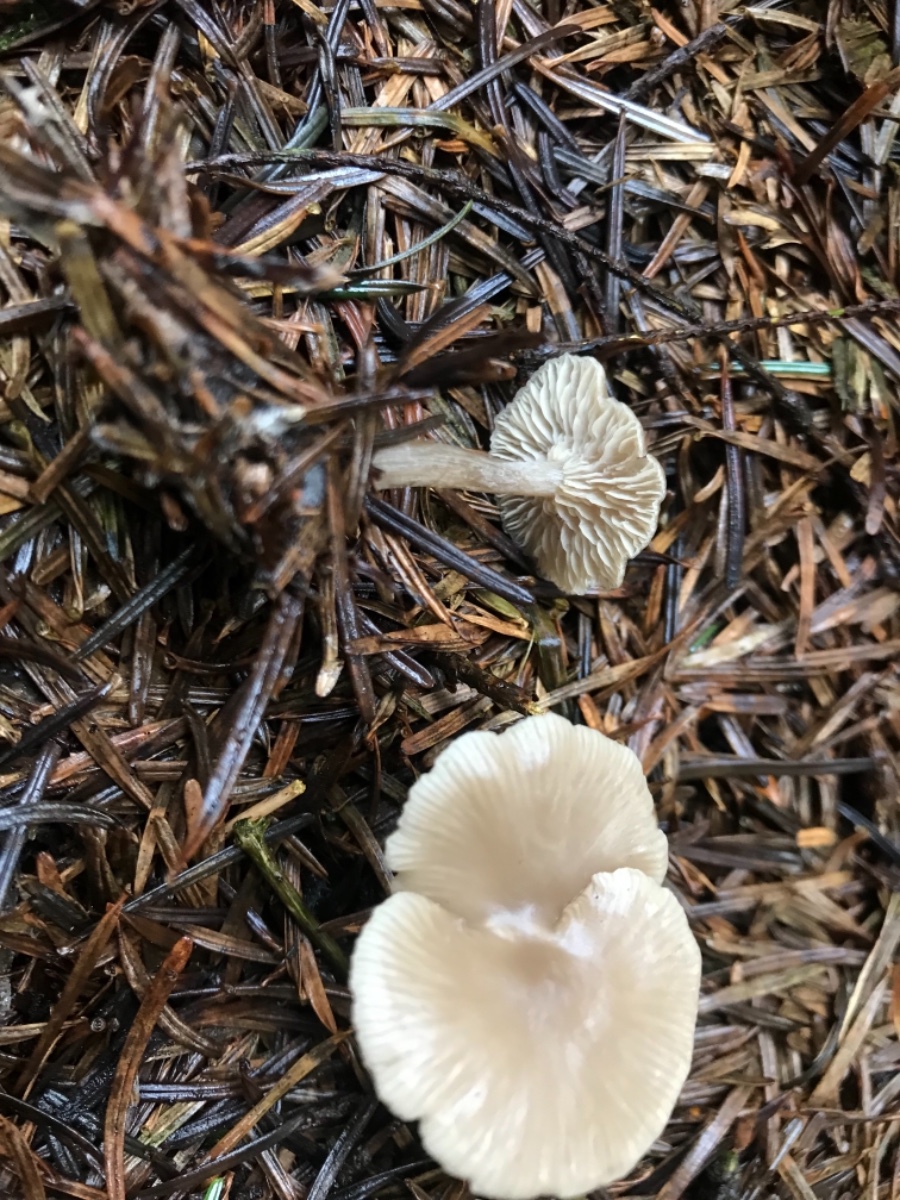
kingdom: Fungi
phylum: Basidiomycota
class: Agaricomycetes
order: Agaricales
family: Tricholomataceae
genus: Clitocybe
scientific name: Clitocybe
